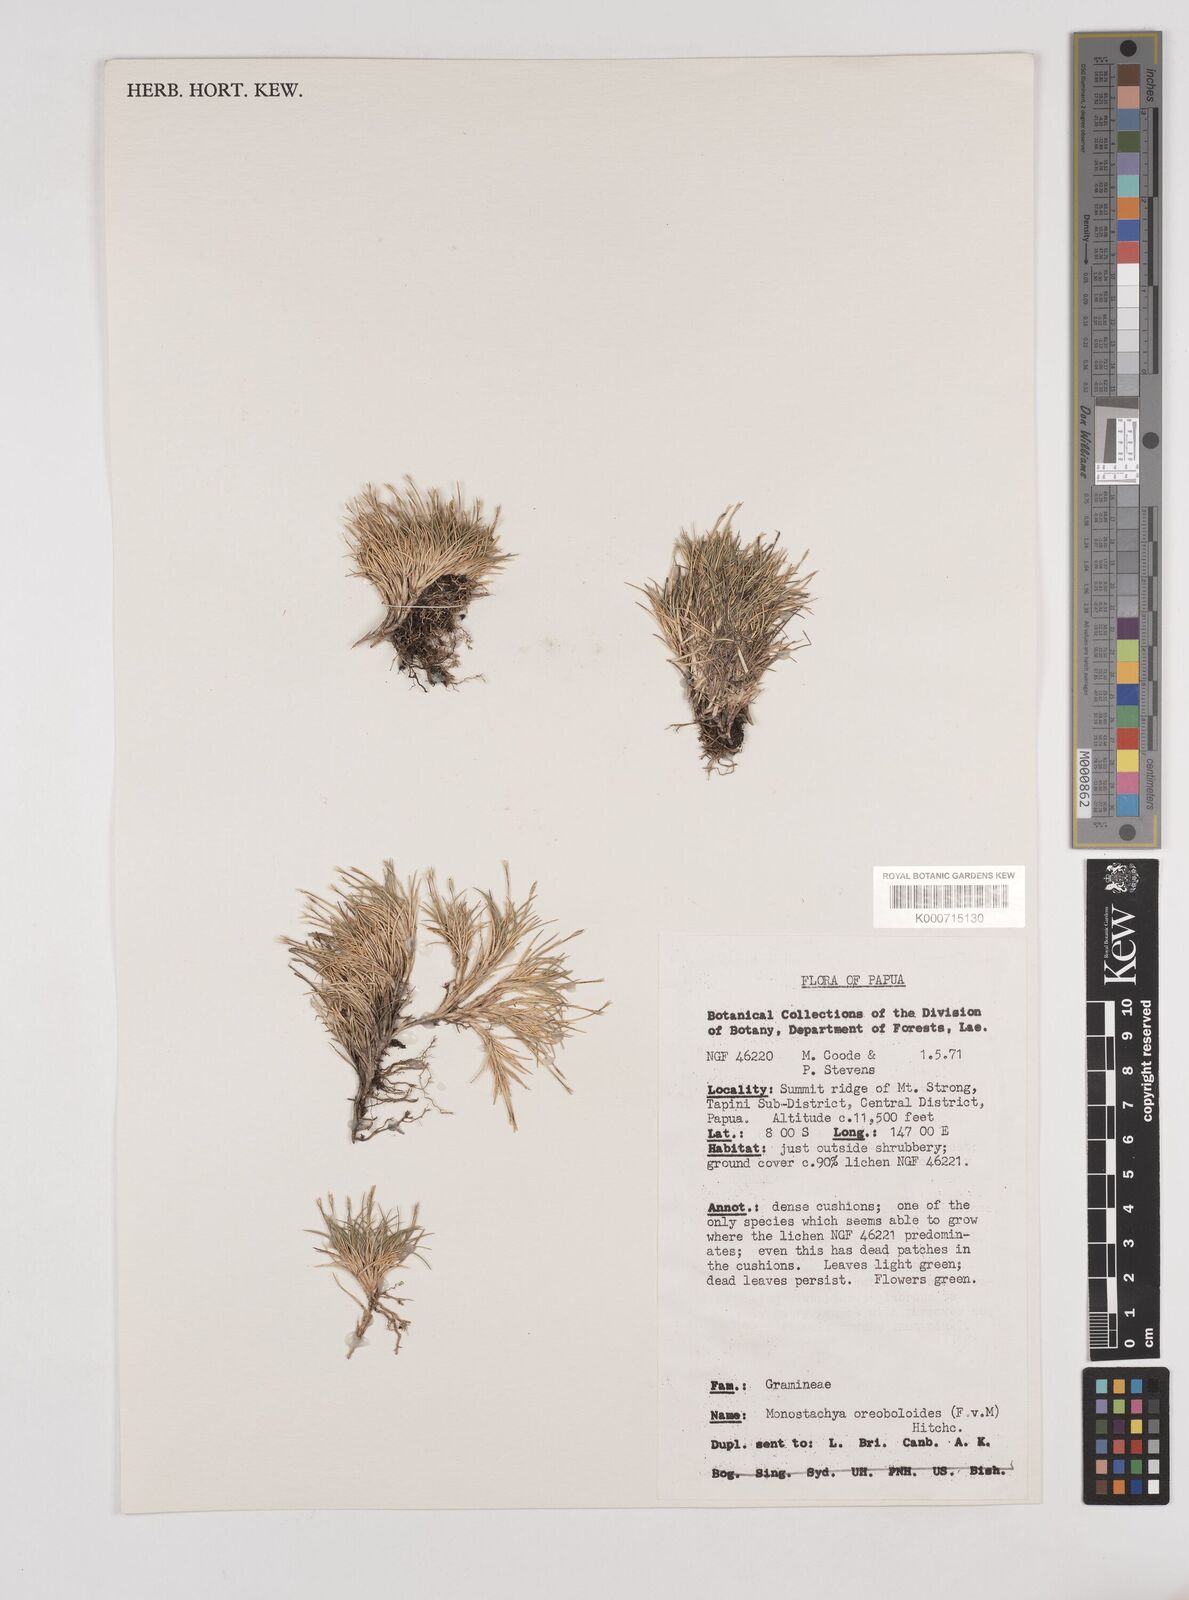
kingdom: Plantae
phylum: Tracheophyta
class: Liliopsida
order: Poales
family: Poaceae
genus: Rytidosperma
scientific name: Rytidosperma oreoboloides
